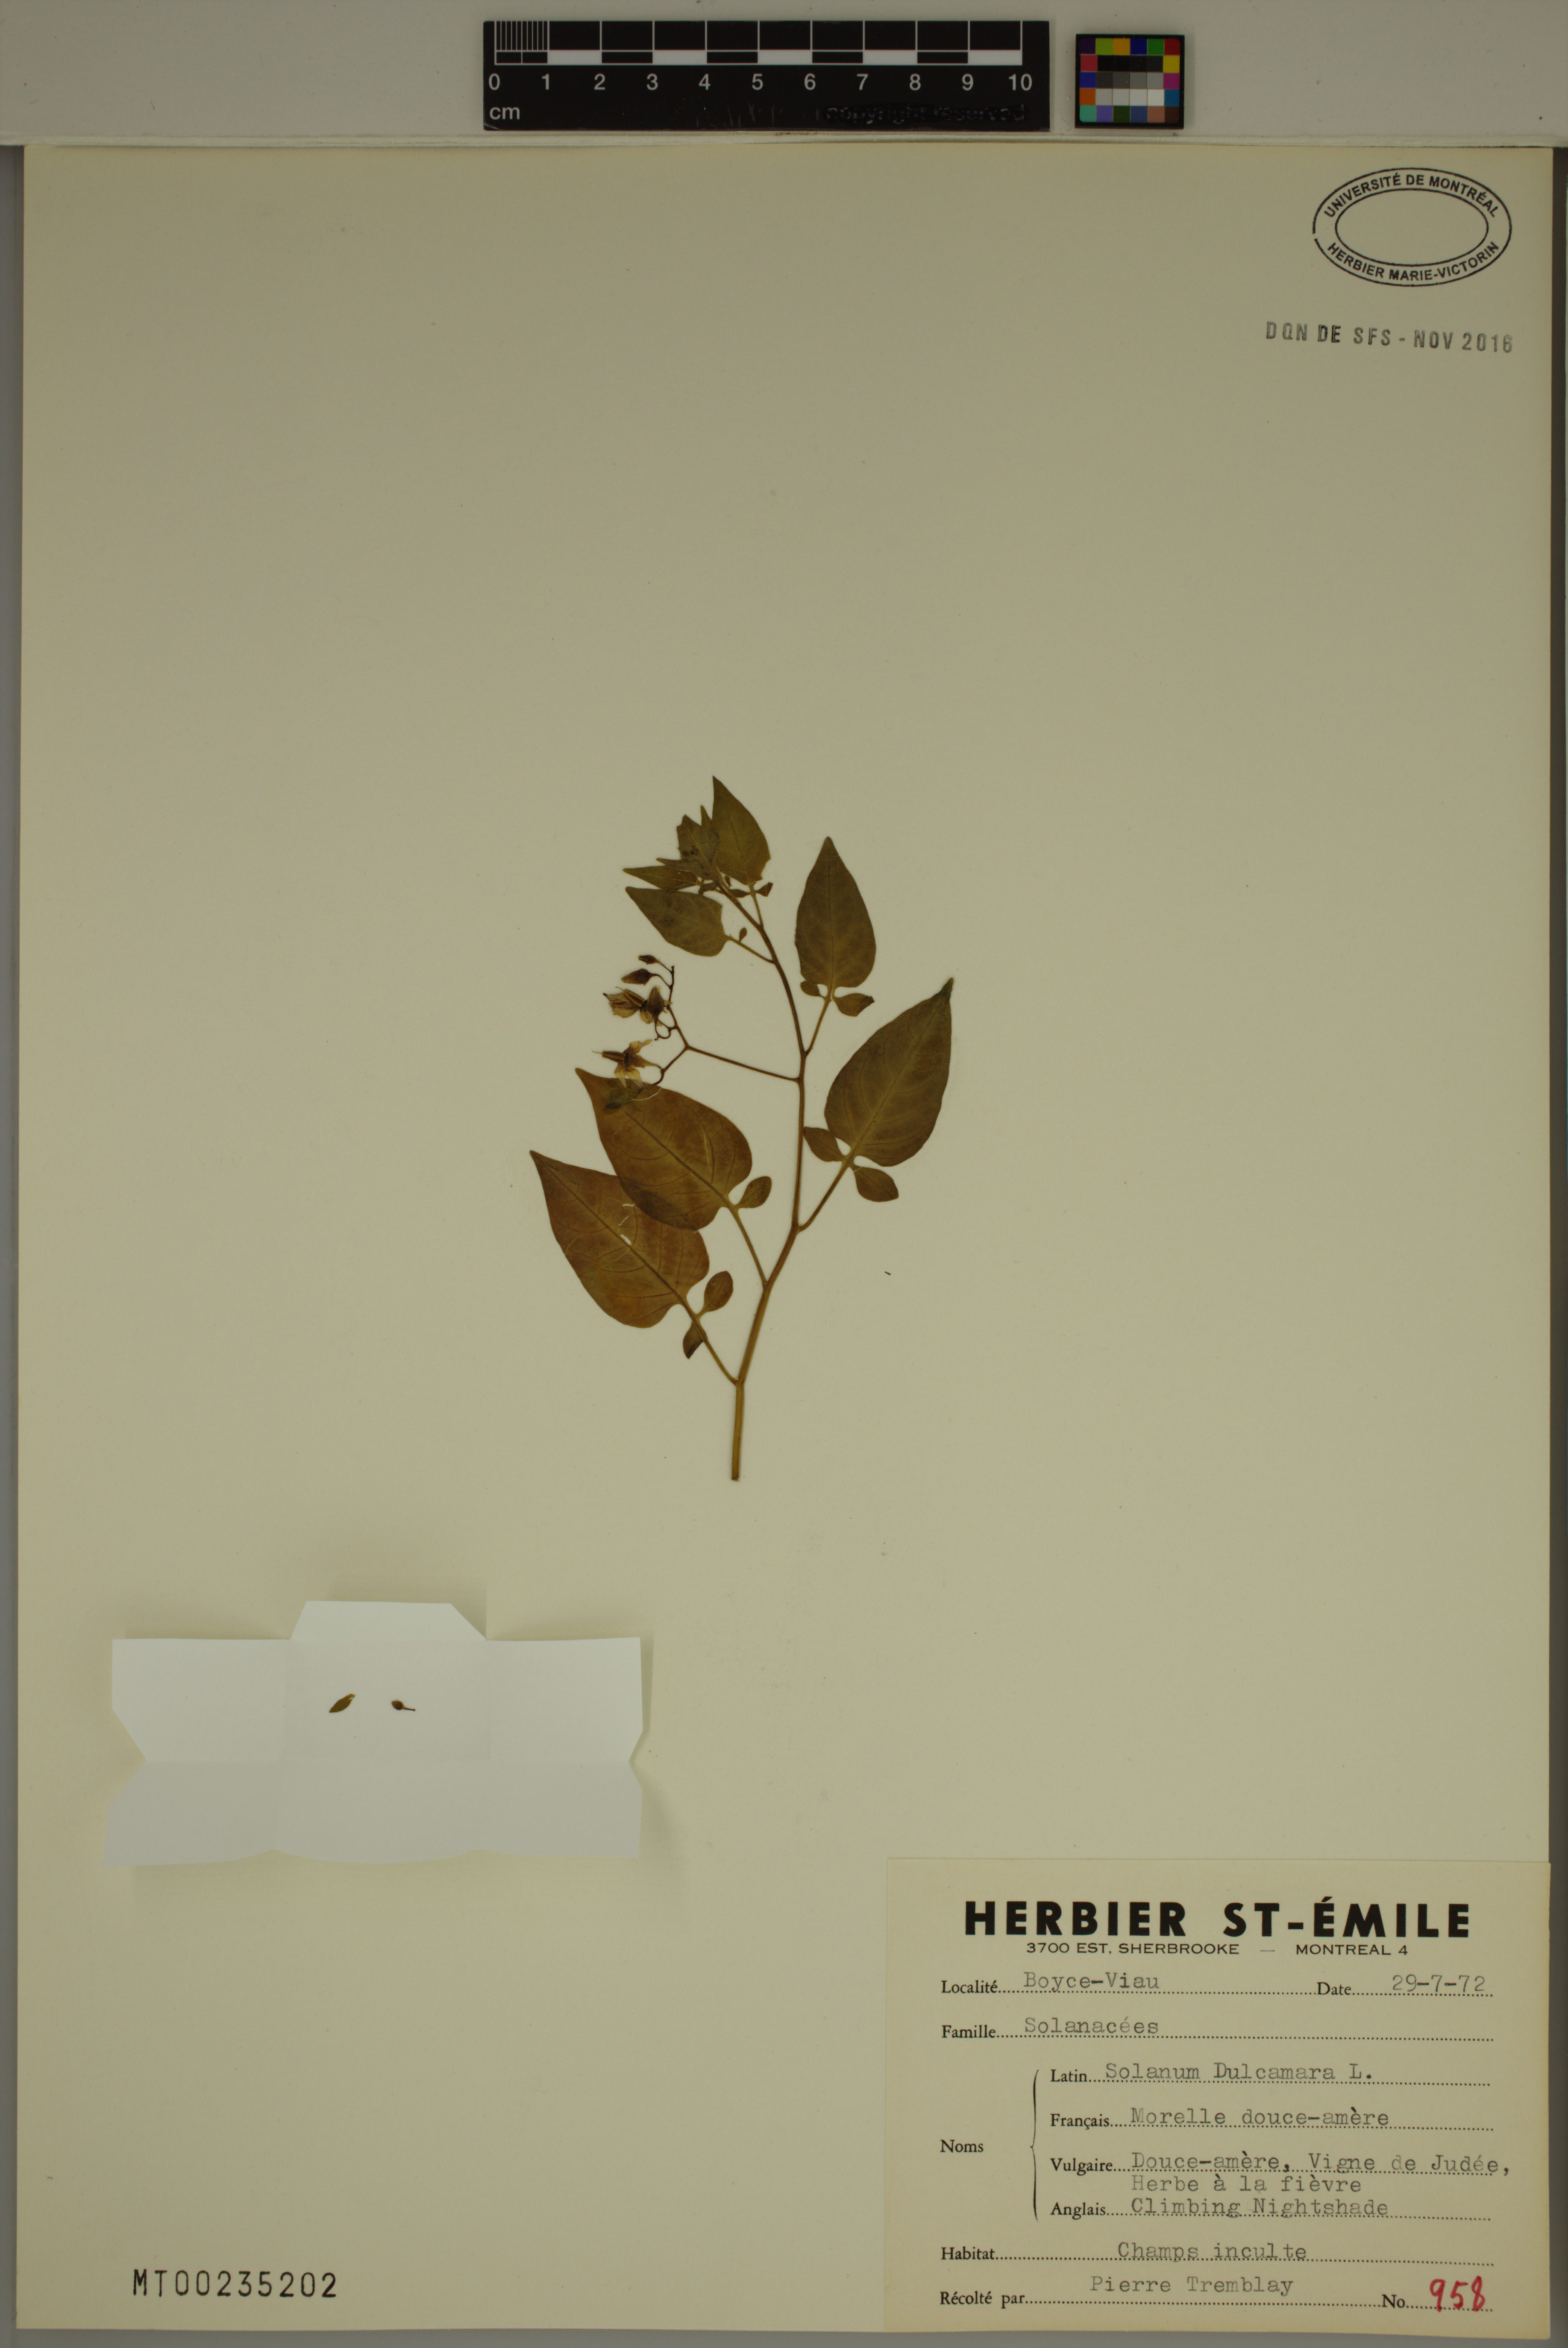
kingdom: Plantae
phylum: Tracheophyta
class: Magnoliopsida
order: Solanales
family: Solanaceae
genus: Solanum
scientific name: Solanum dulcamara
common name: Climbing nightshade
